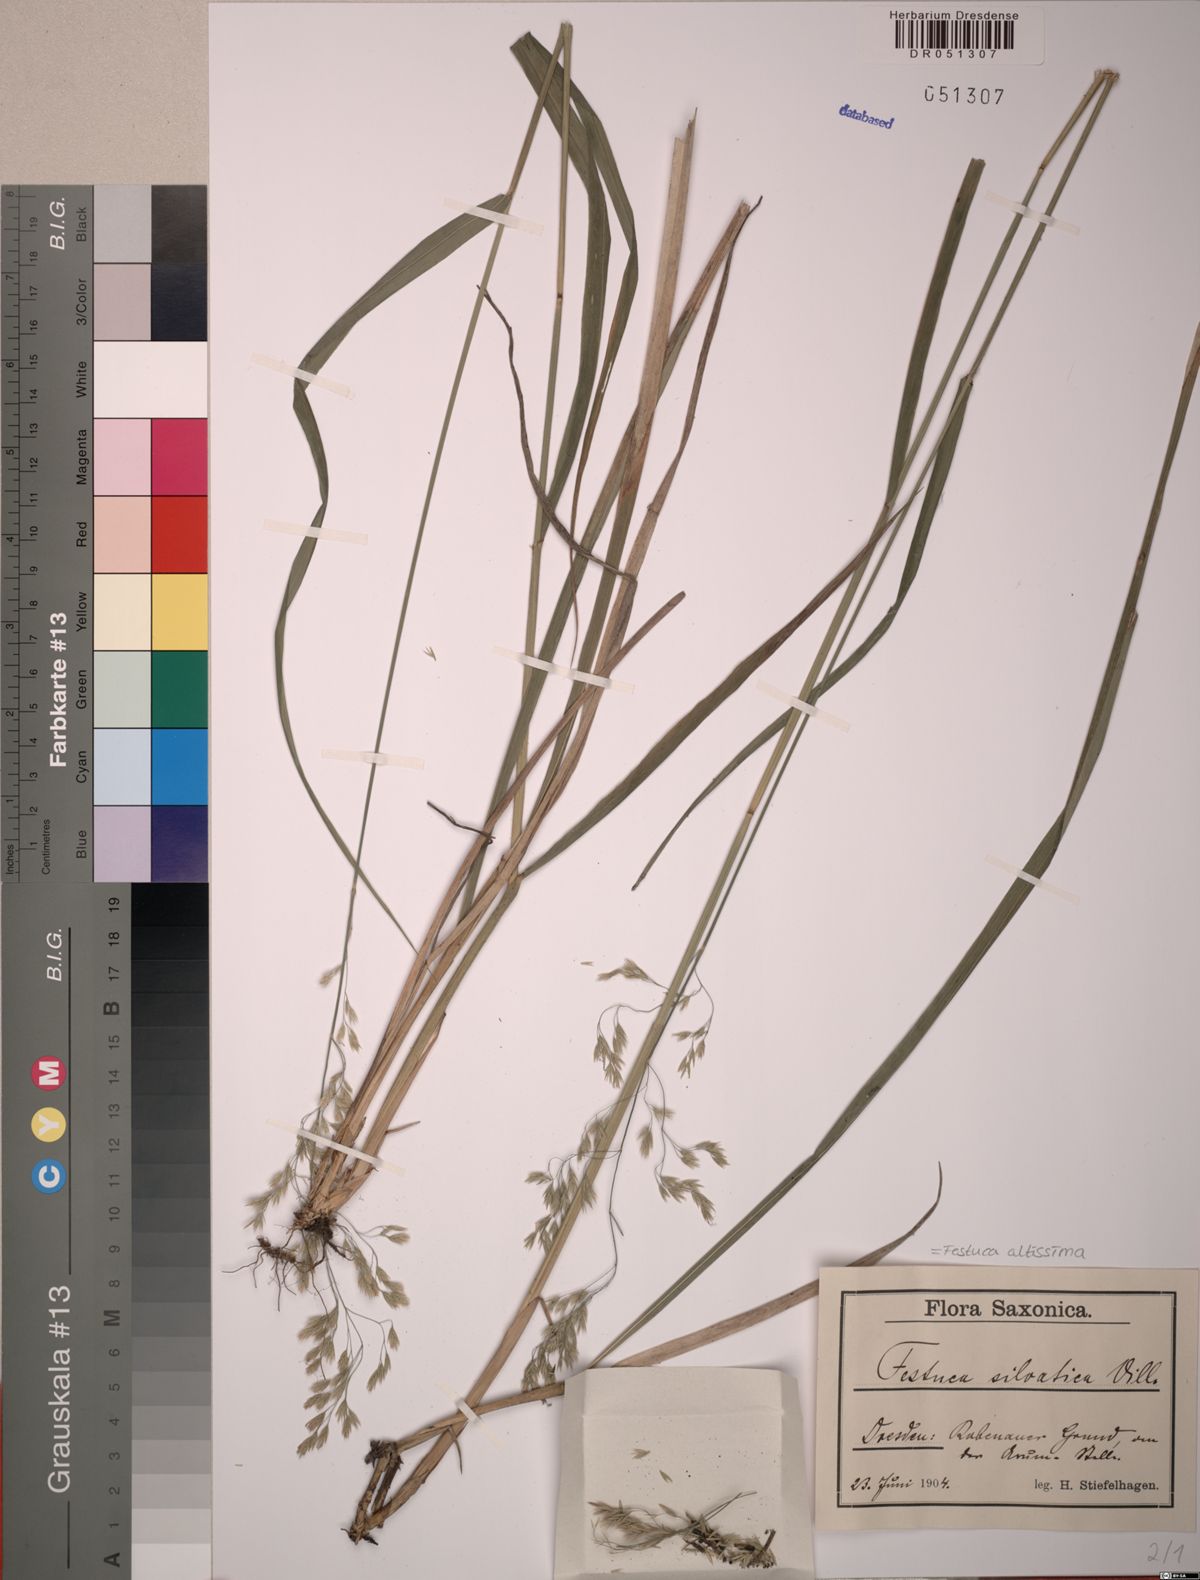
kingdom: Plantae
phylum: Tracheophyta
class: Liliopsida
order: Poales
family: Poaceae
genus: Festuca
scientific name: Festuca altissima
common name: Wood fescue
